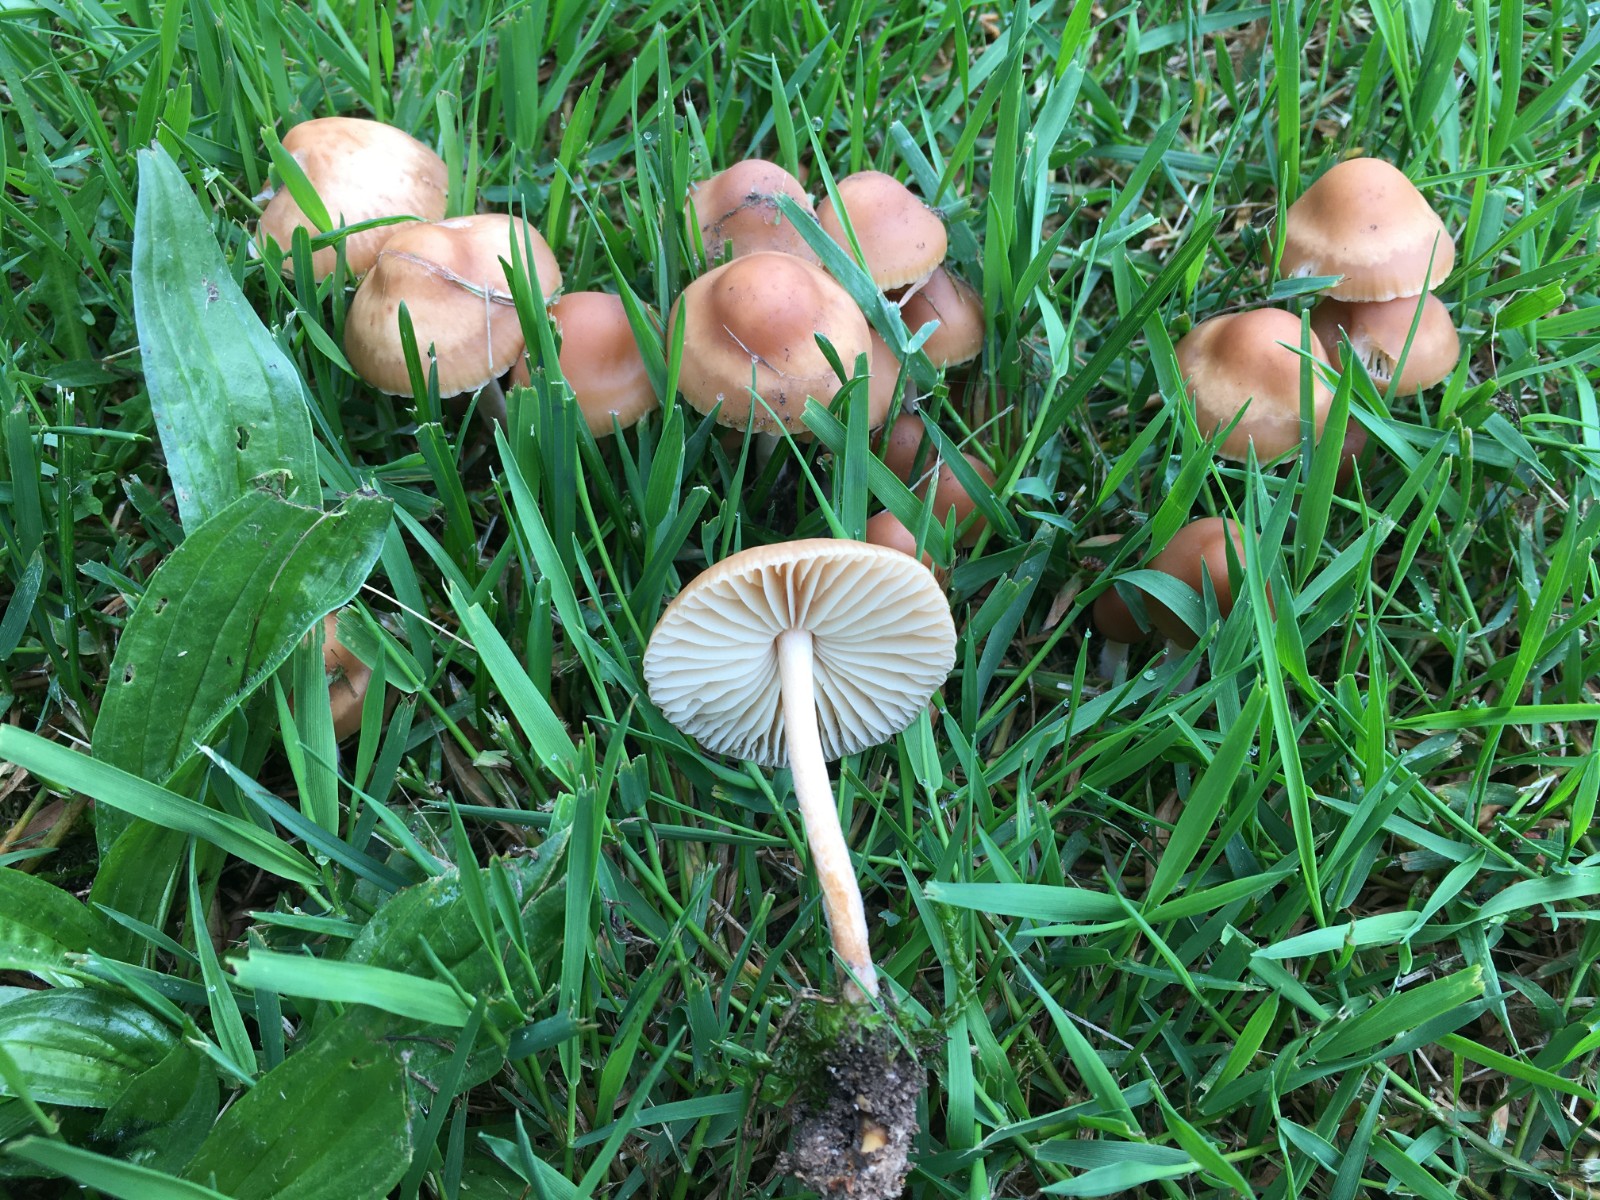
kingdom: Fungi
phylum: Basidiomycota
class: Agaricomycetes
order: Agaricales
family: Marasmiaceae
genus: Marasmius
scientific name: Marasmius oreades
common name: elledans-bruskhat
